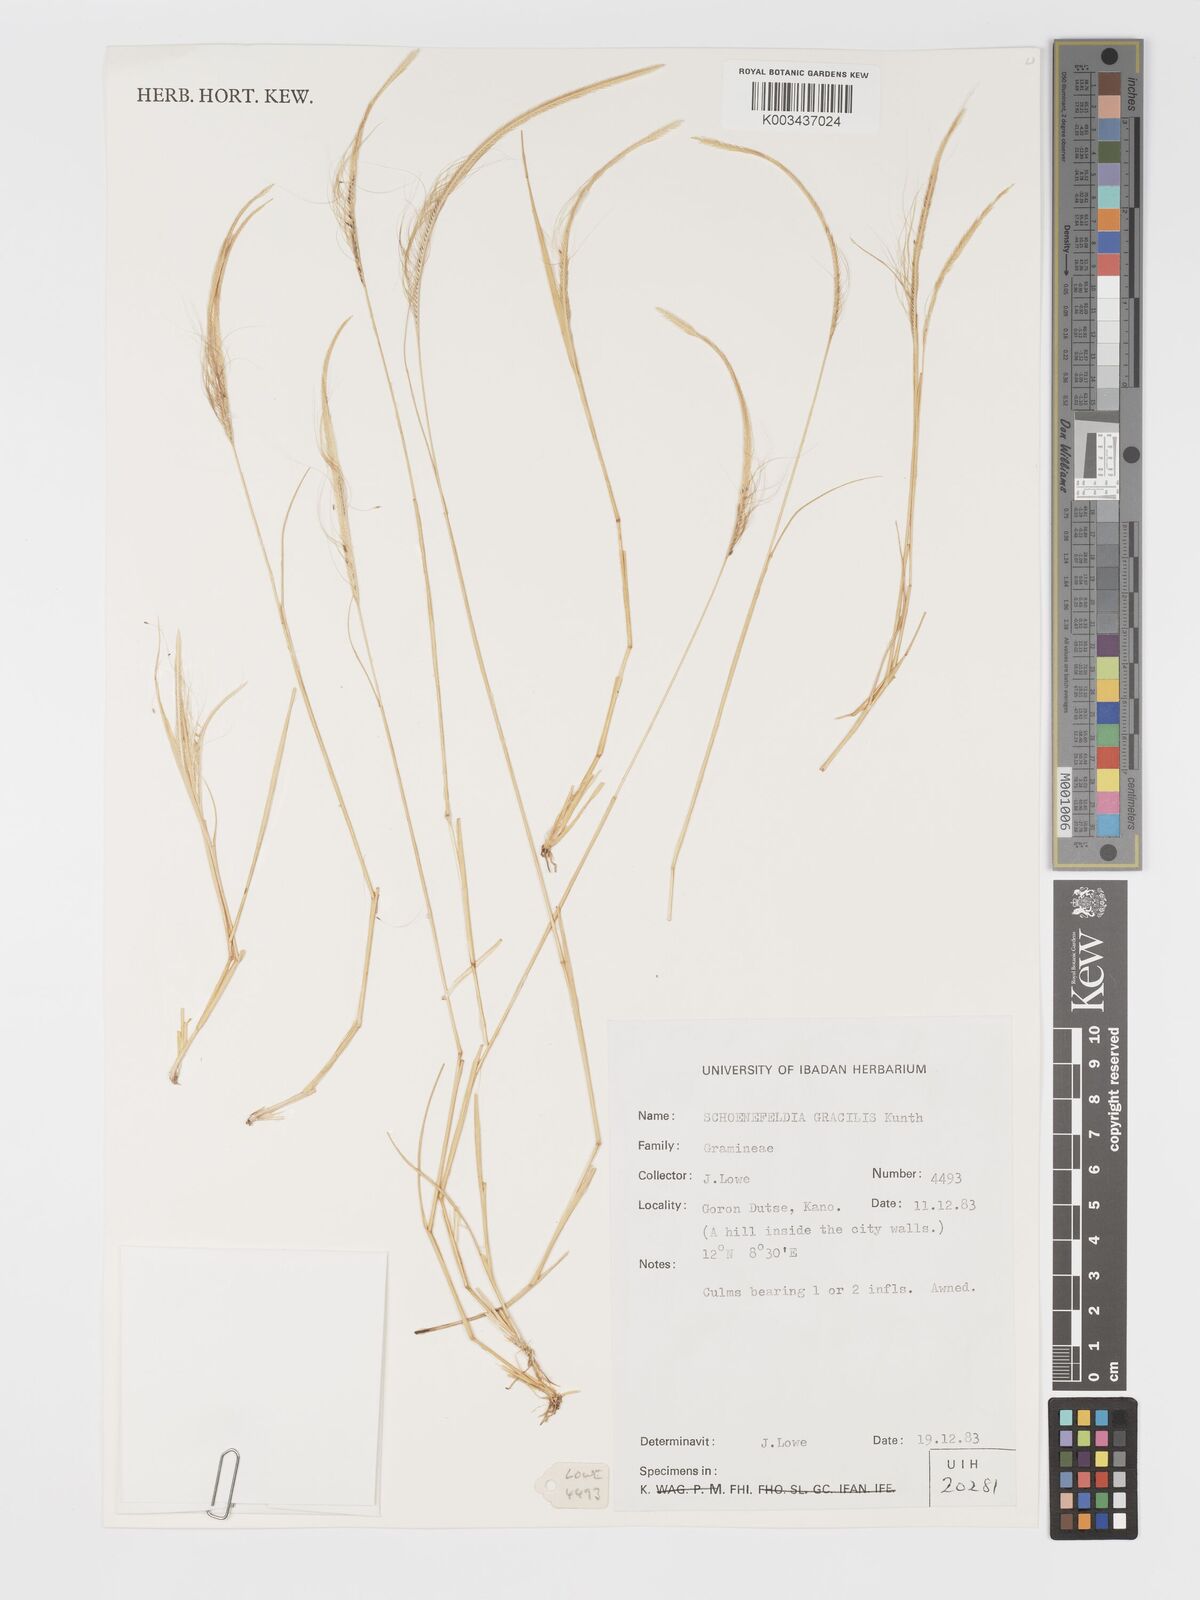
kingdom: Plantae
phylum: Tracheophyta
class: Liliopsida
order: Poales
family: Poaceae
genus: Schoenefeldia
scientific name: Schoenefeldia gracilis
